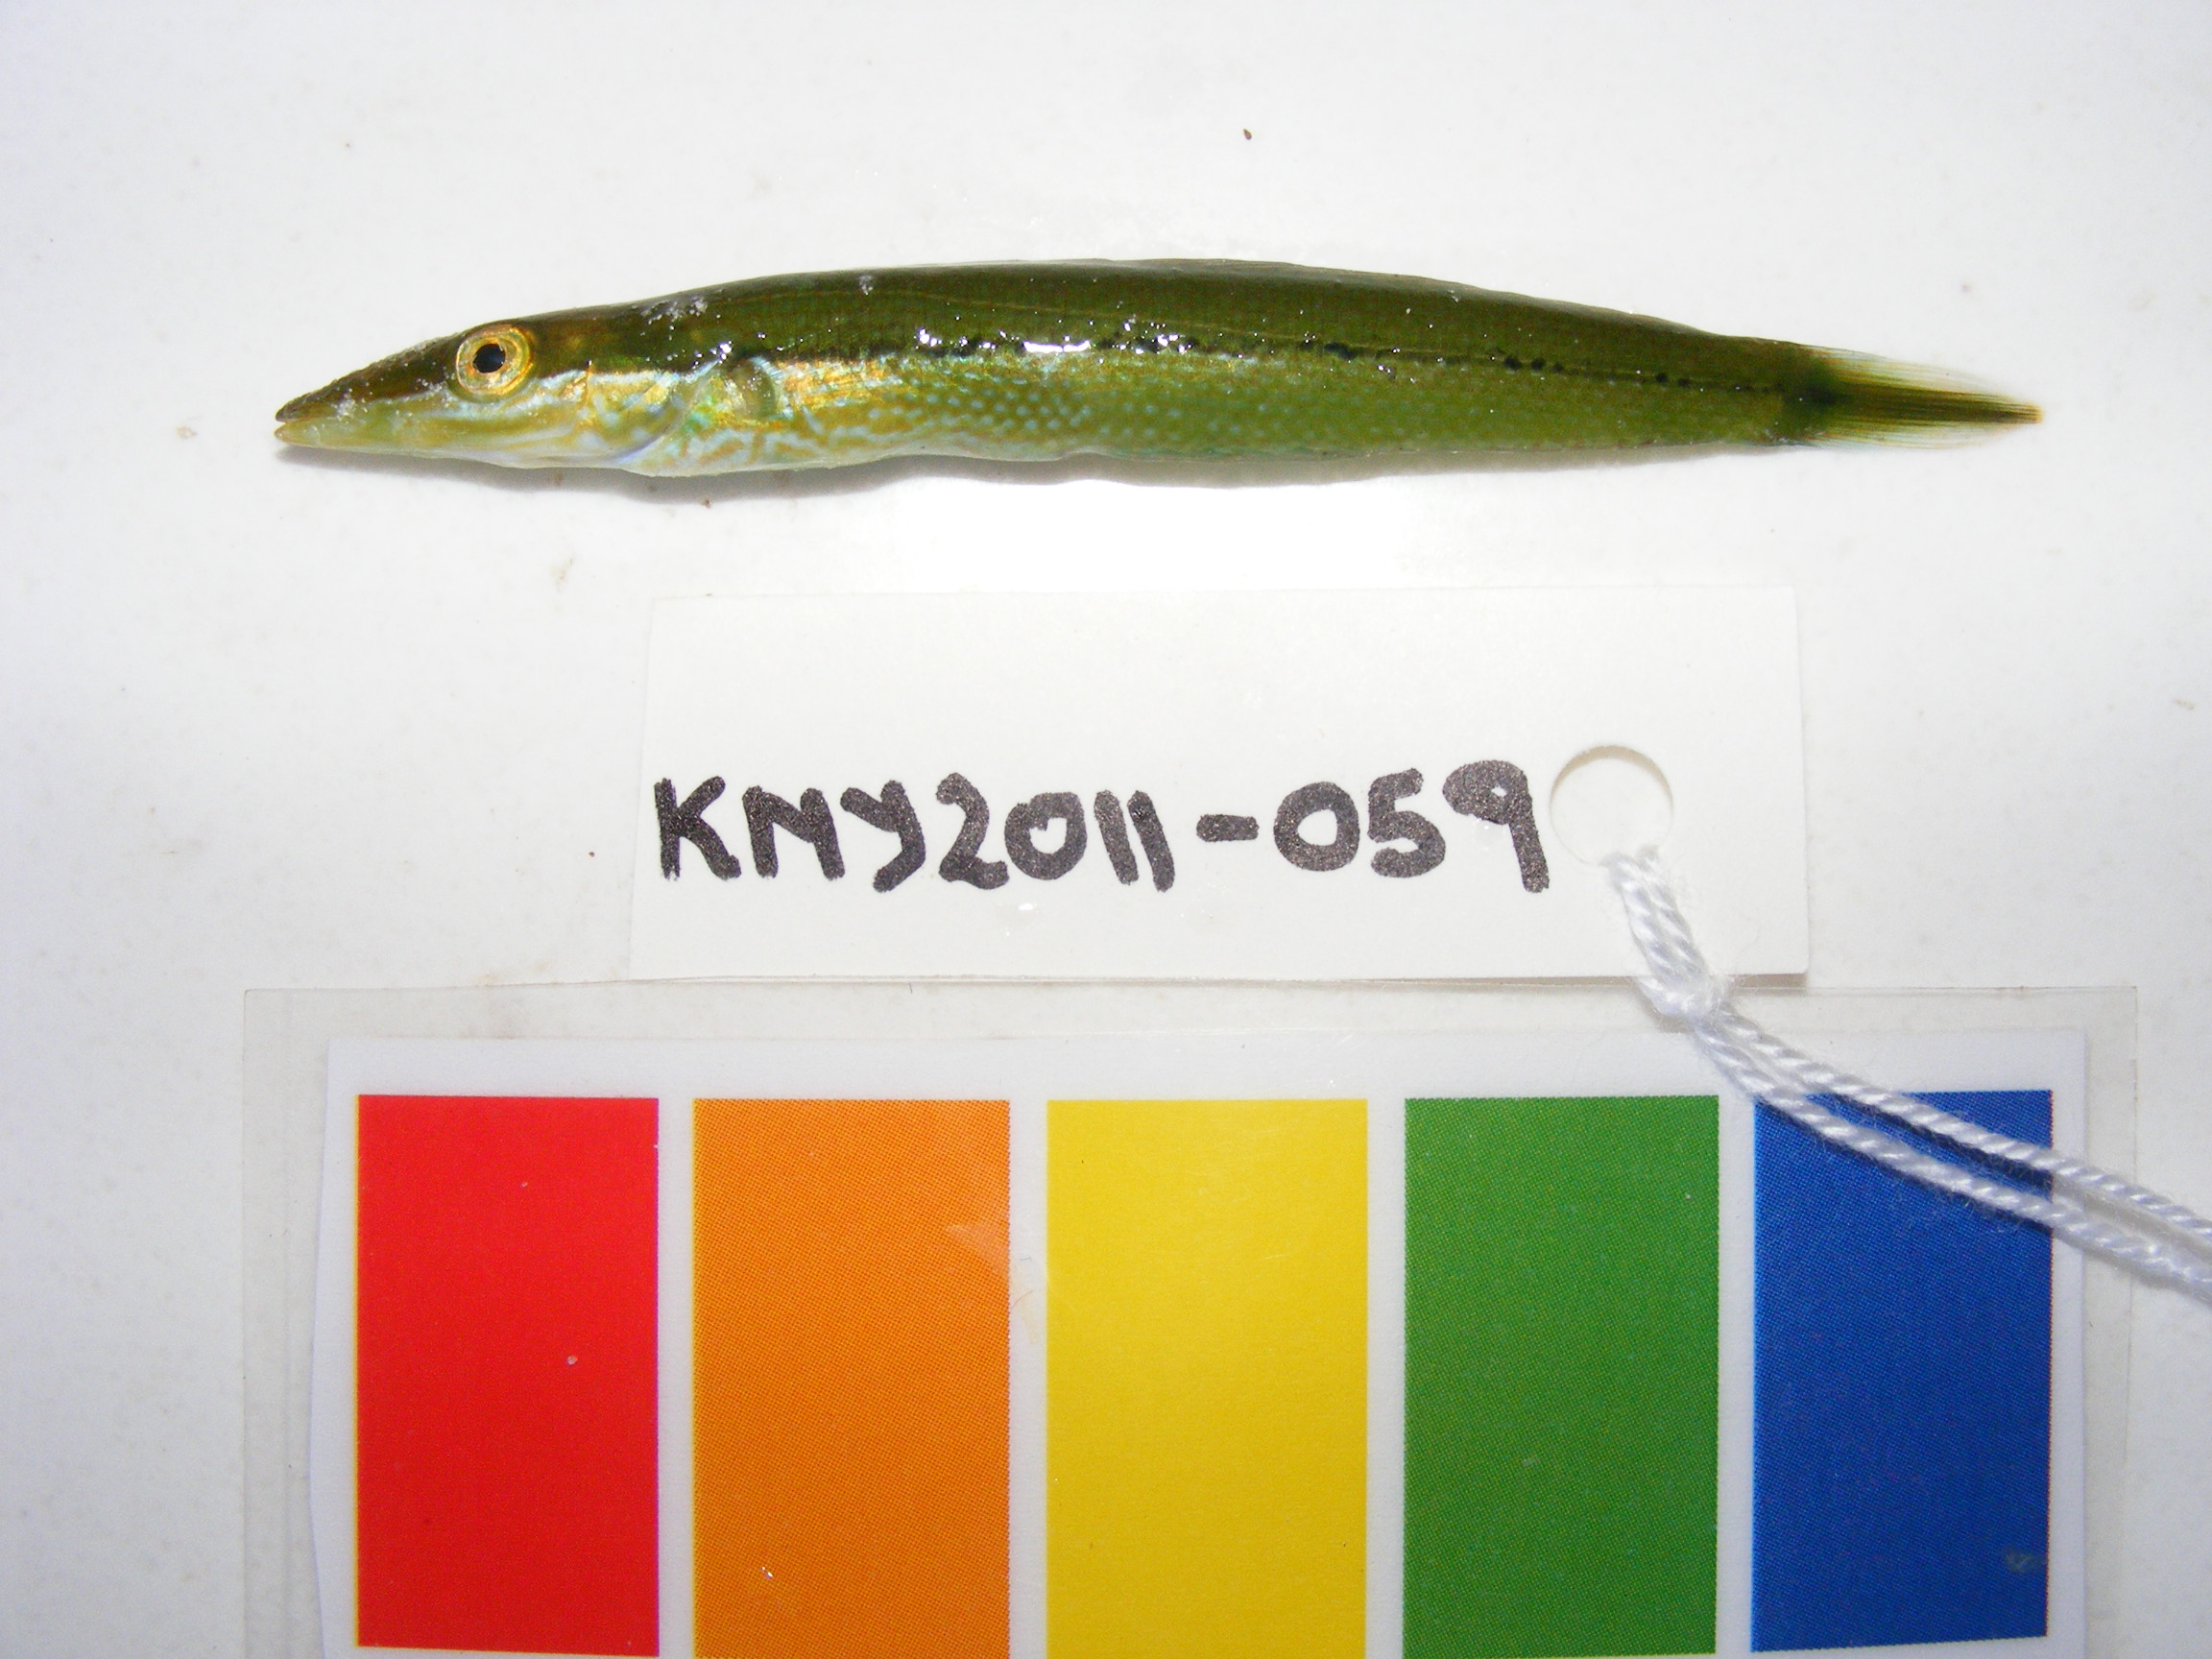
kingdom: Animalia
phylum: Chordata
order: Perciformes
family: Labridae
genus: Cheilio
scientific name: Cheilio inermis
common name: Cigar wrasse
